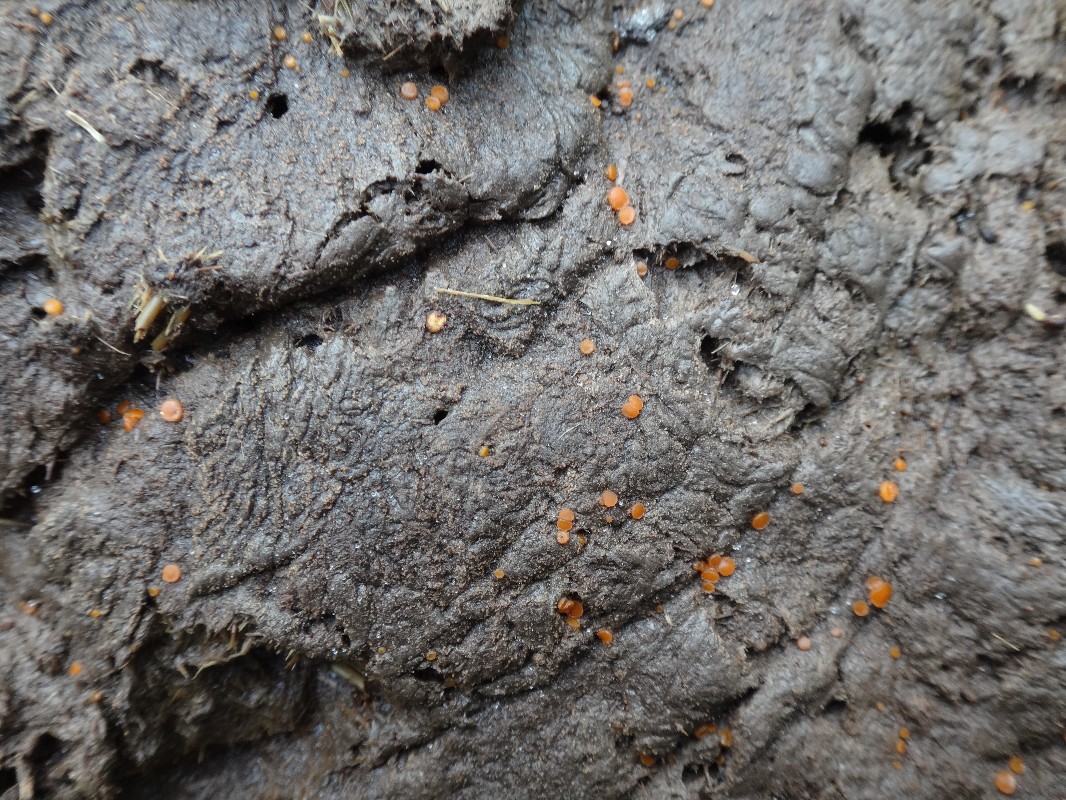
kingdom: Fungi
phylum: Ascomycota
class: Pezizomycetes
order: Pezizales
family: Pyronemataceae
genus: Cheilymenia
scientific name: Cheilymenia granulata
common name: møgbæger
